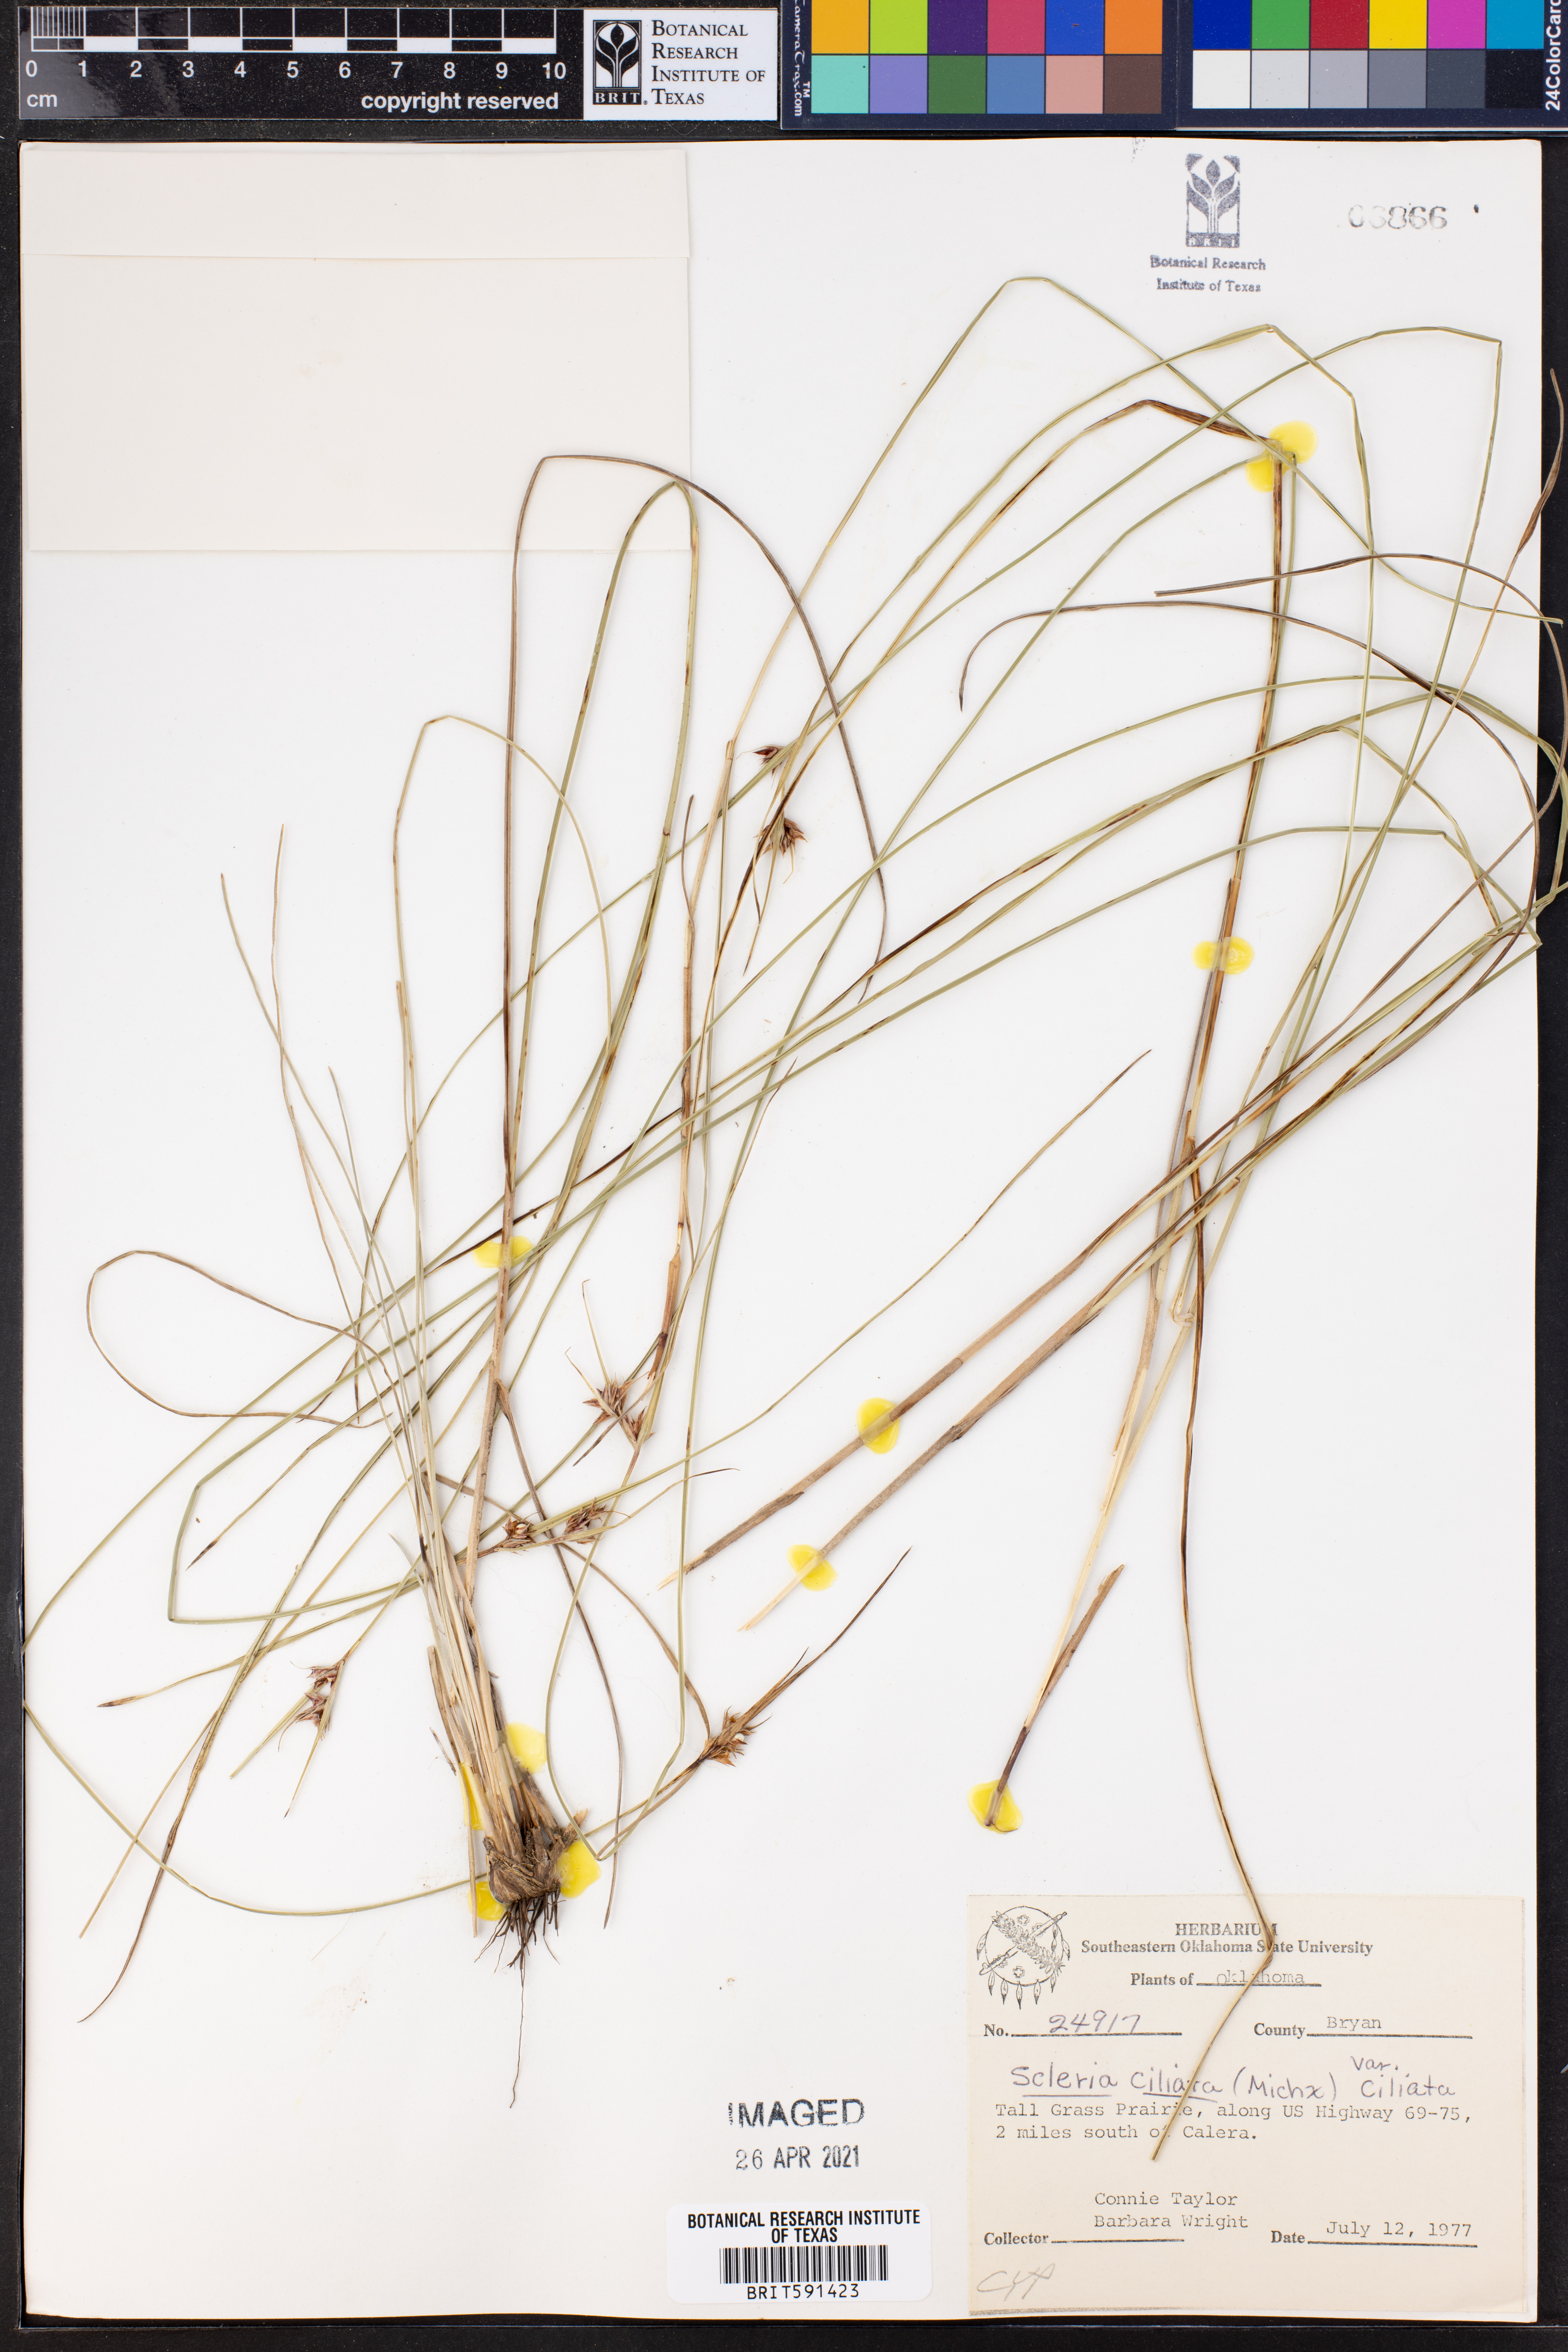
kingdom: Plantae
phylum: Tracheophyta
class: Liliopsida
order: Poales
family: Cyperaceae
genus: Scleria
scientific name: Scleria ciliata
